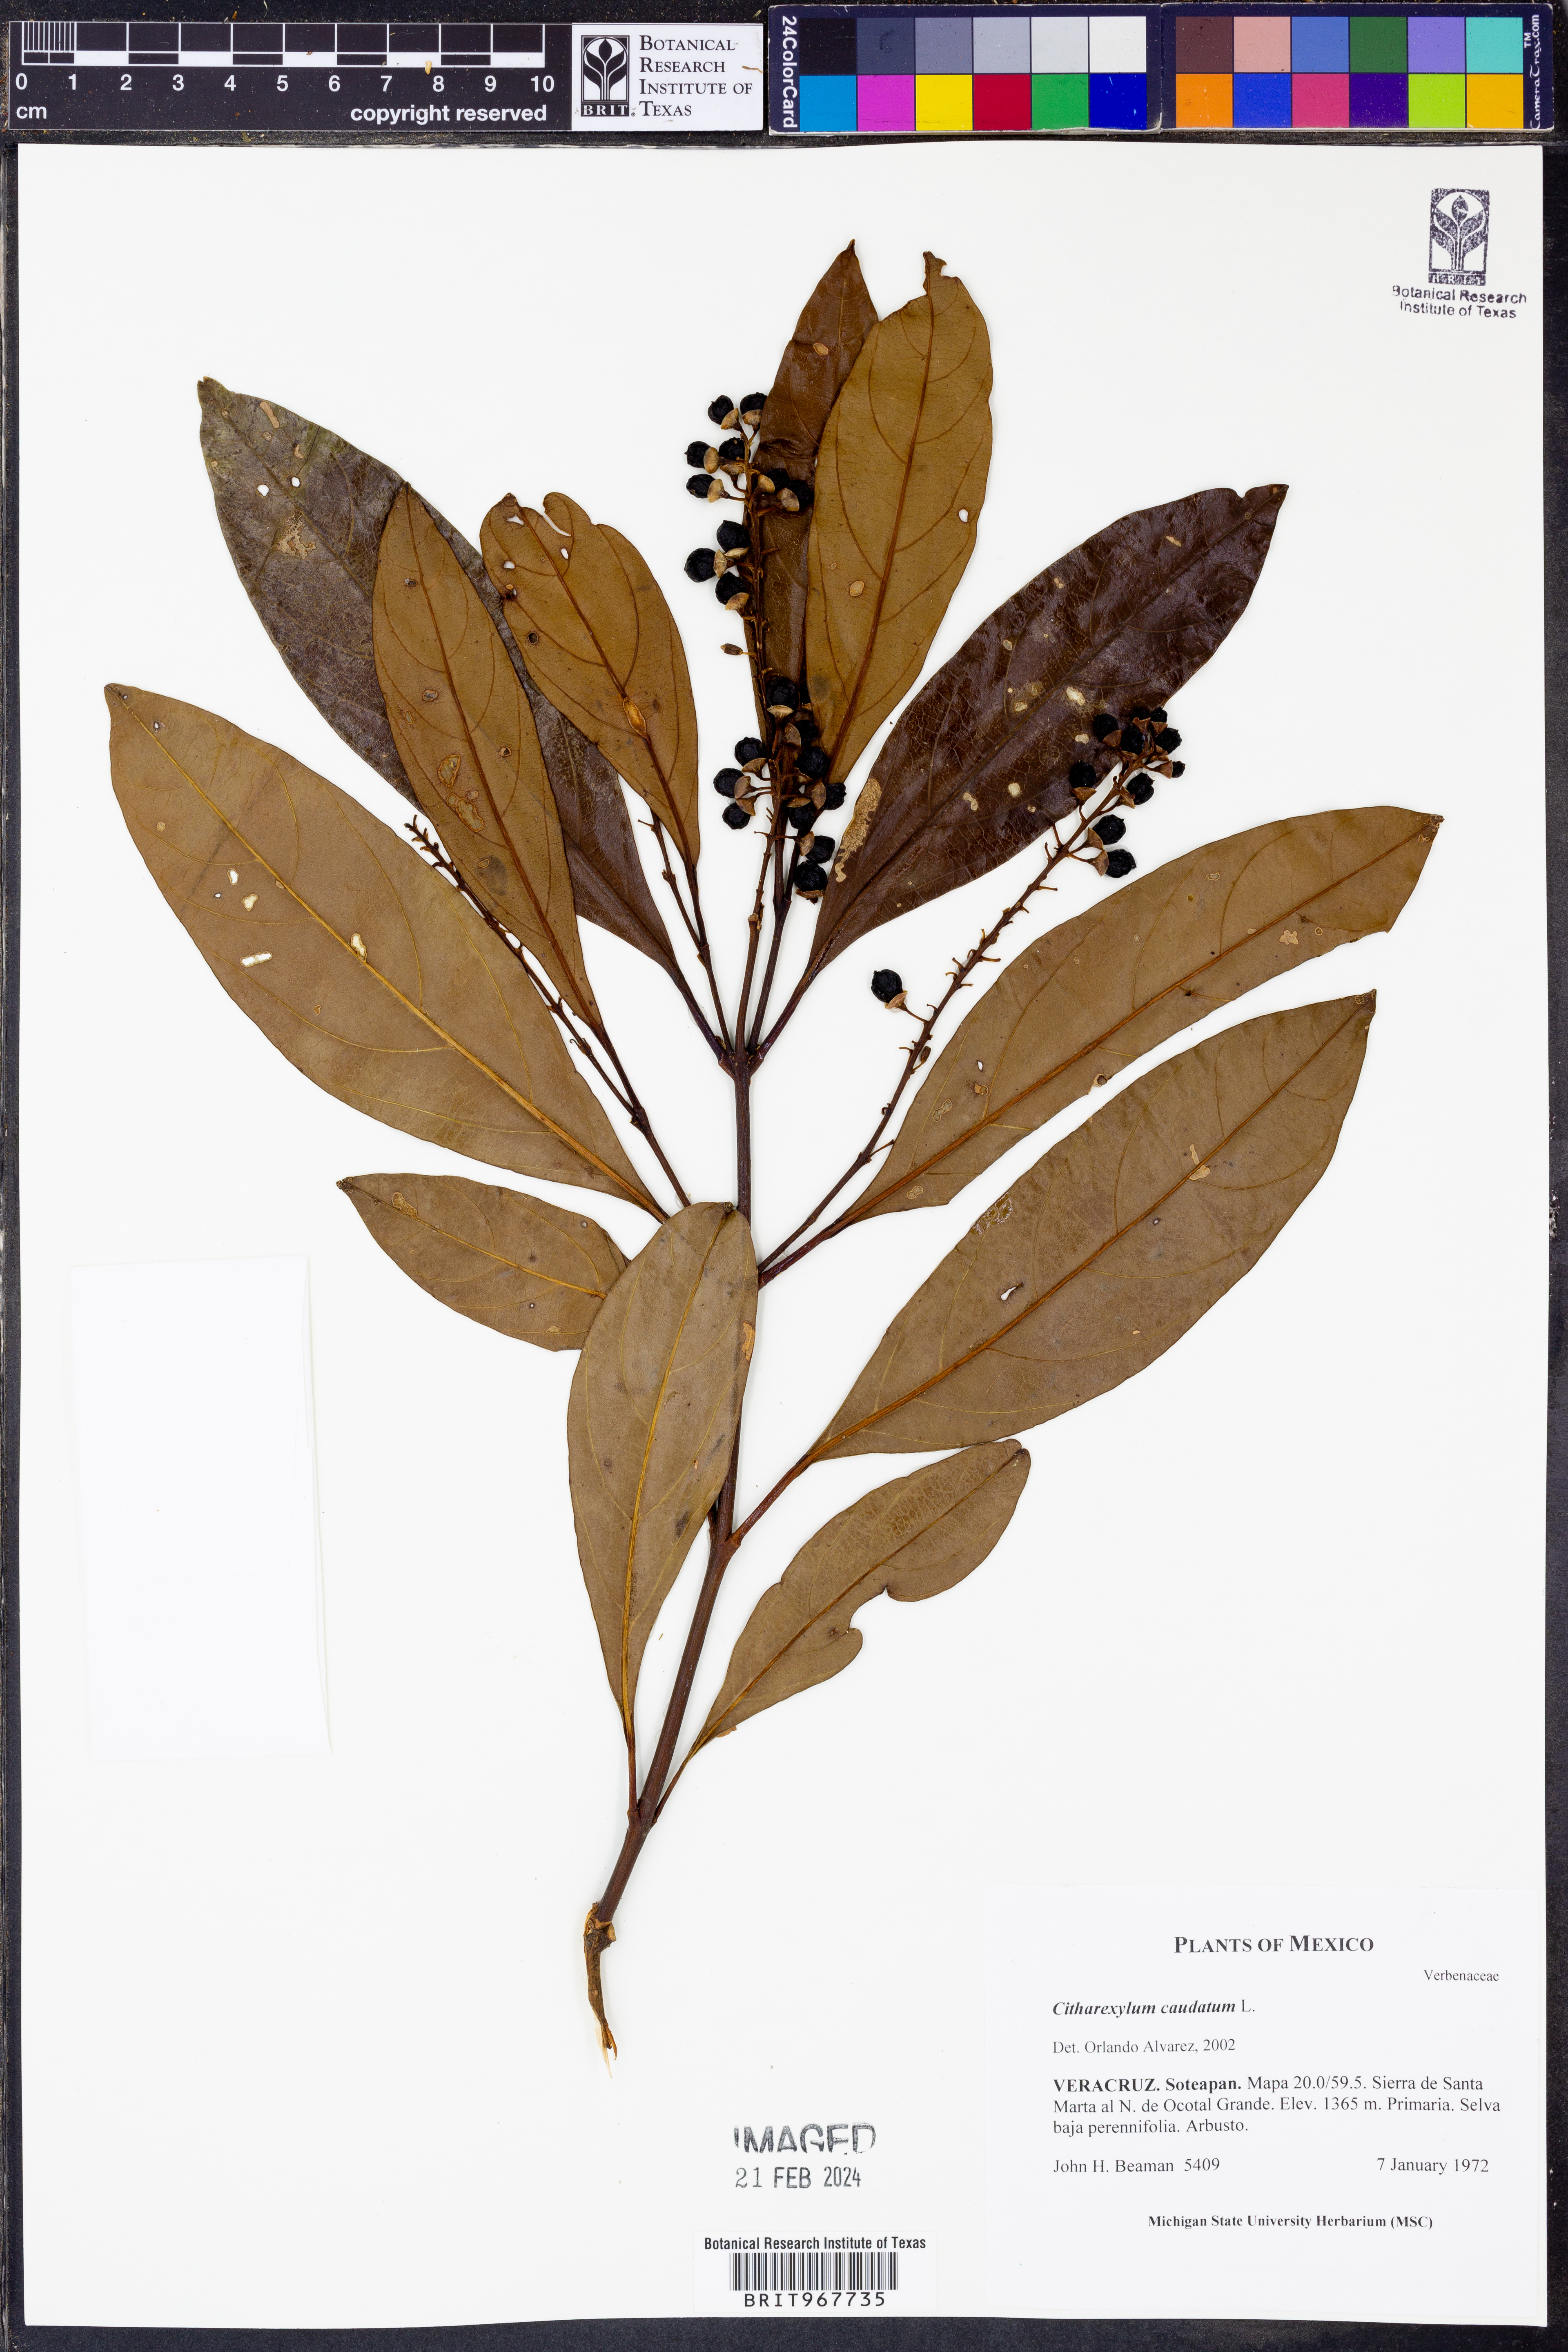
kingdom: Plantae
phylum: Tracheophyta
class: Magnoliopsida
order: Lamiales
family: Verbenaceae
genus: Citharexylum
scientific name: Citharexylum
